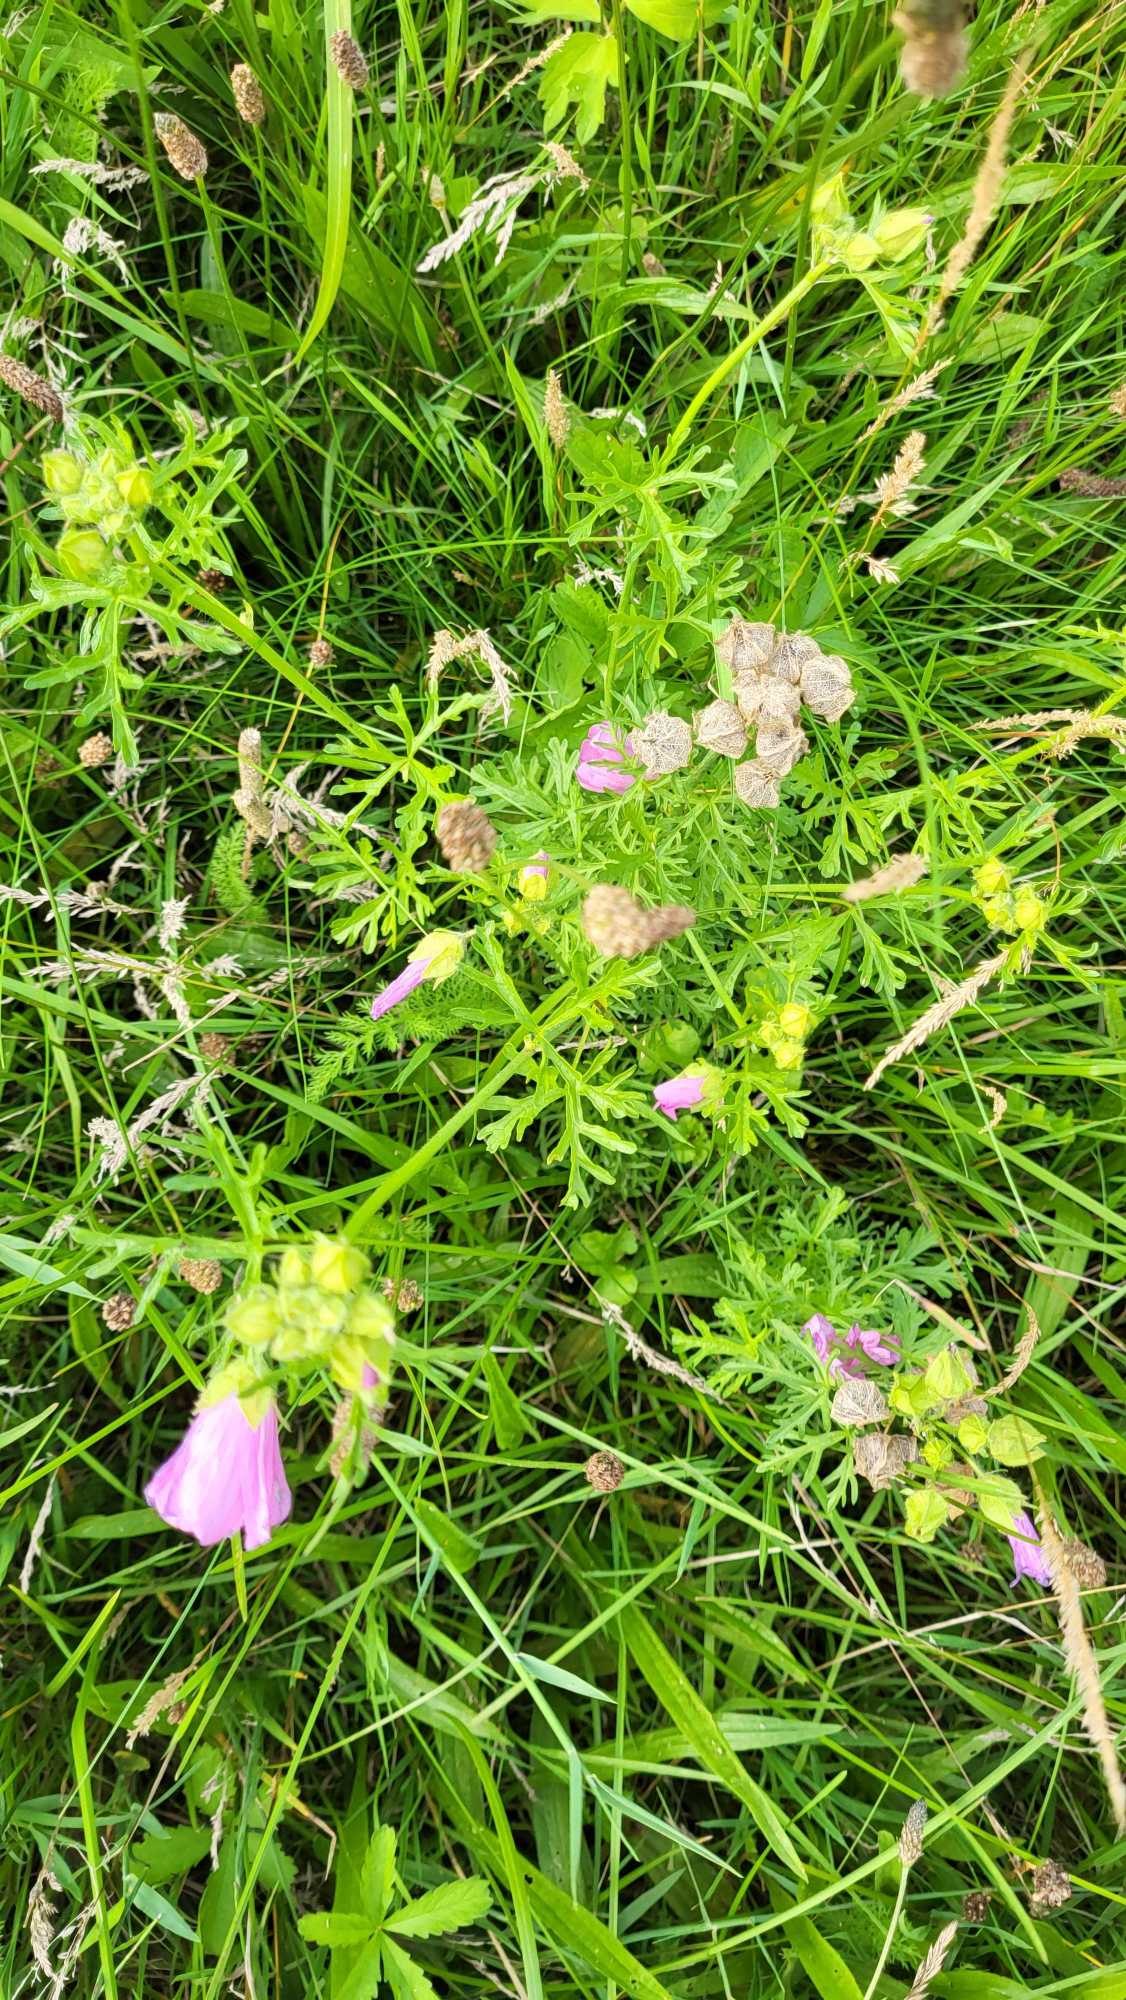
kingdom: Plantae
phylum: Tracheophyta
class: Magnoliopsida
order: Malvales
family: Malvaceae
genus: Malva
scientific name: Malva moschata
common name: Moskus-katost
